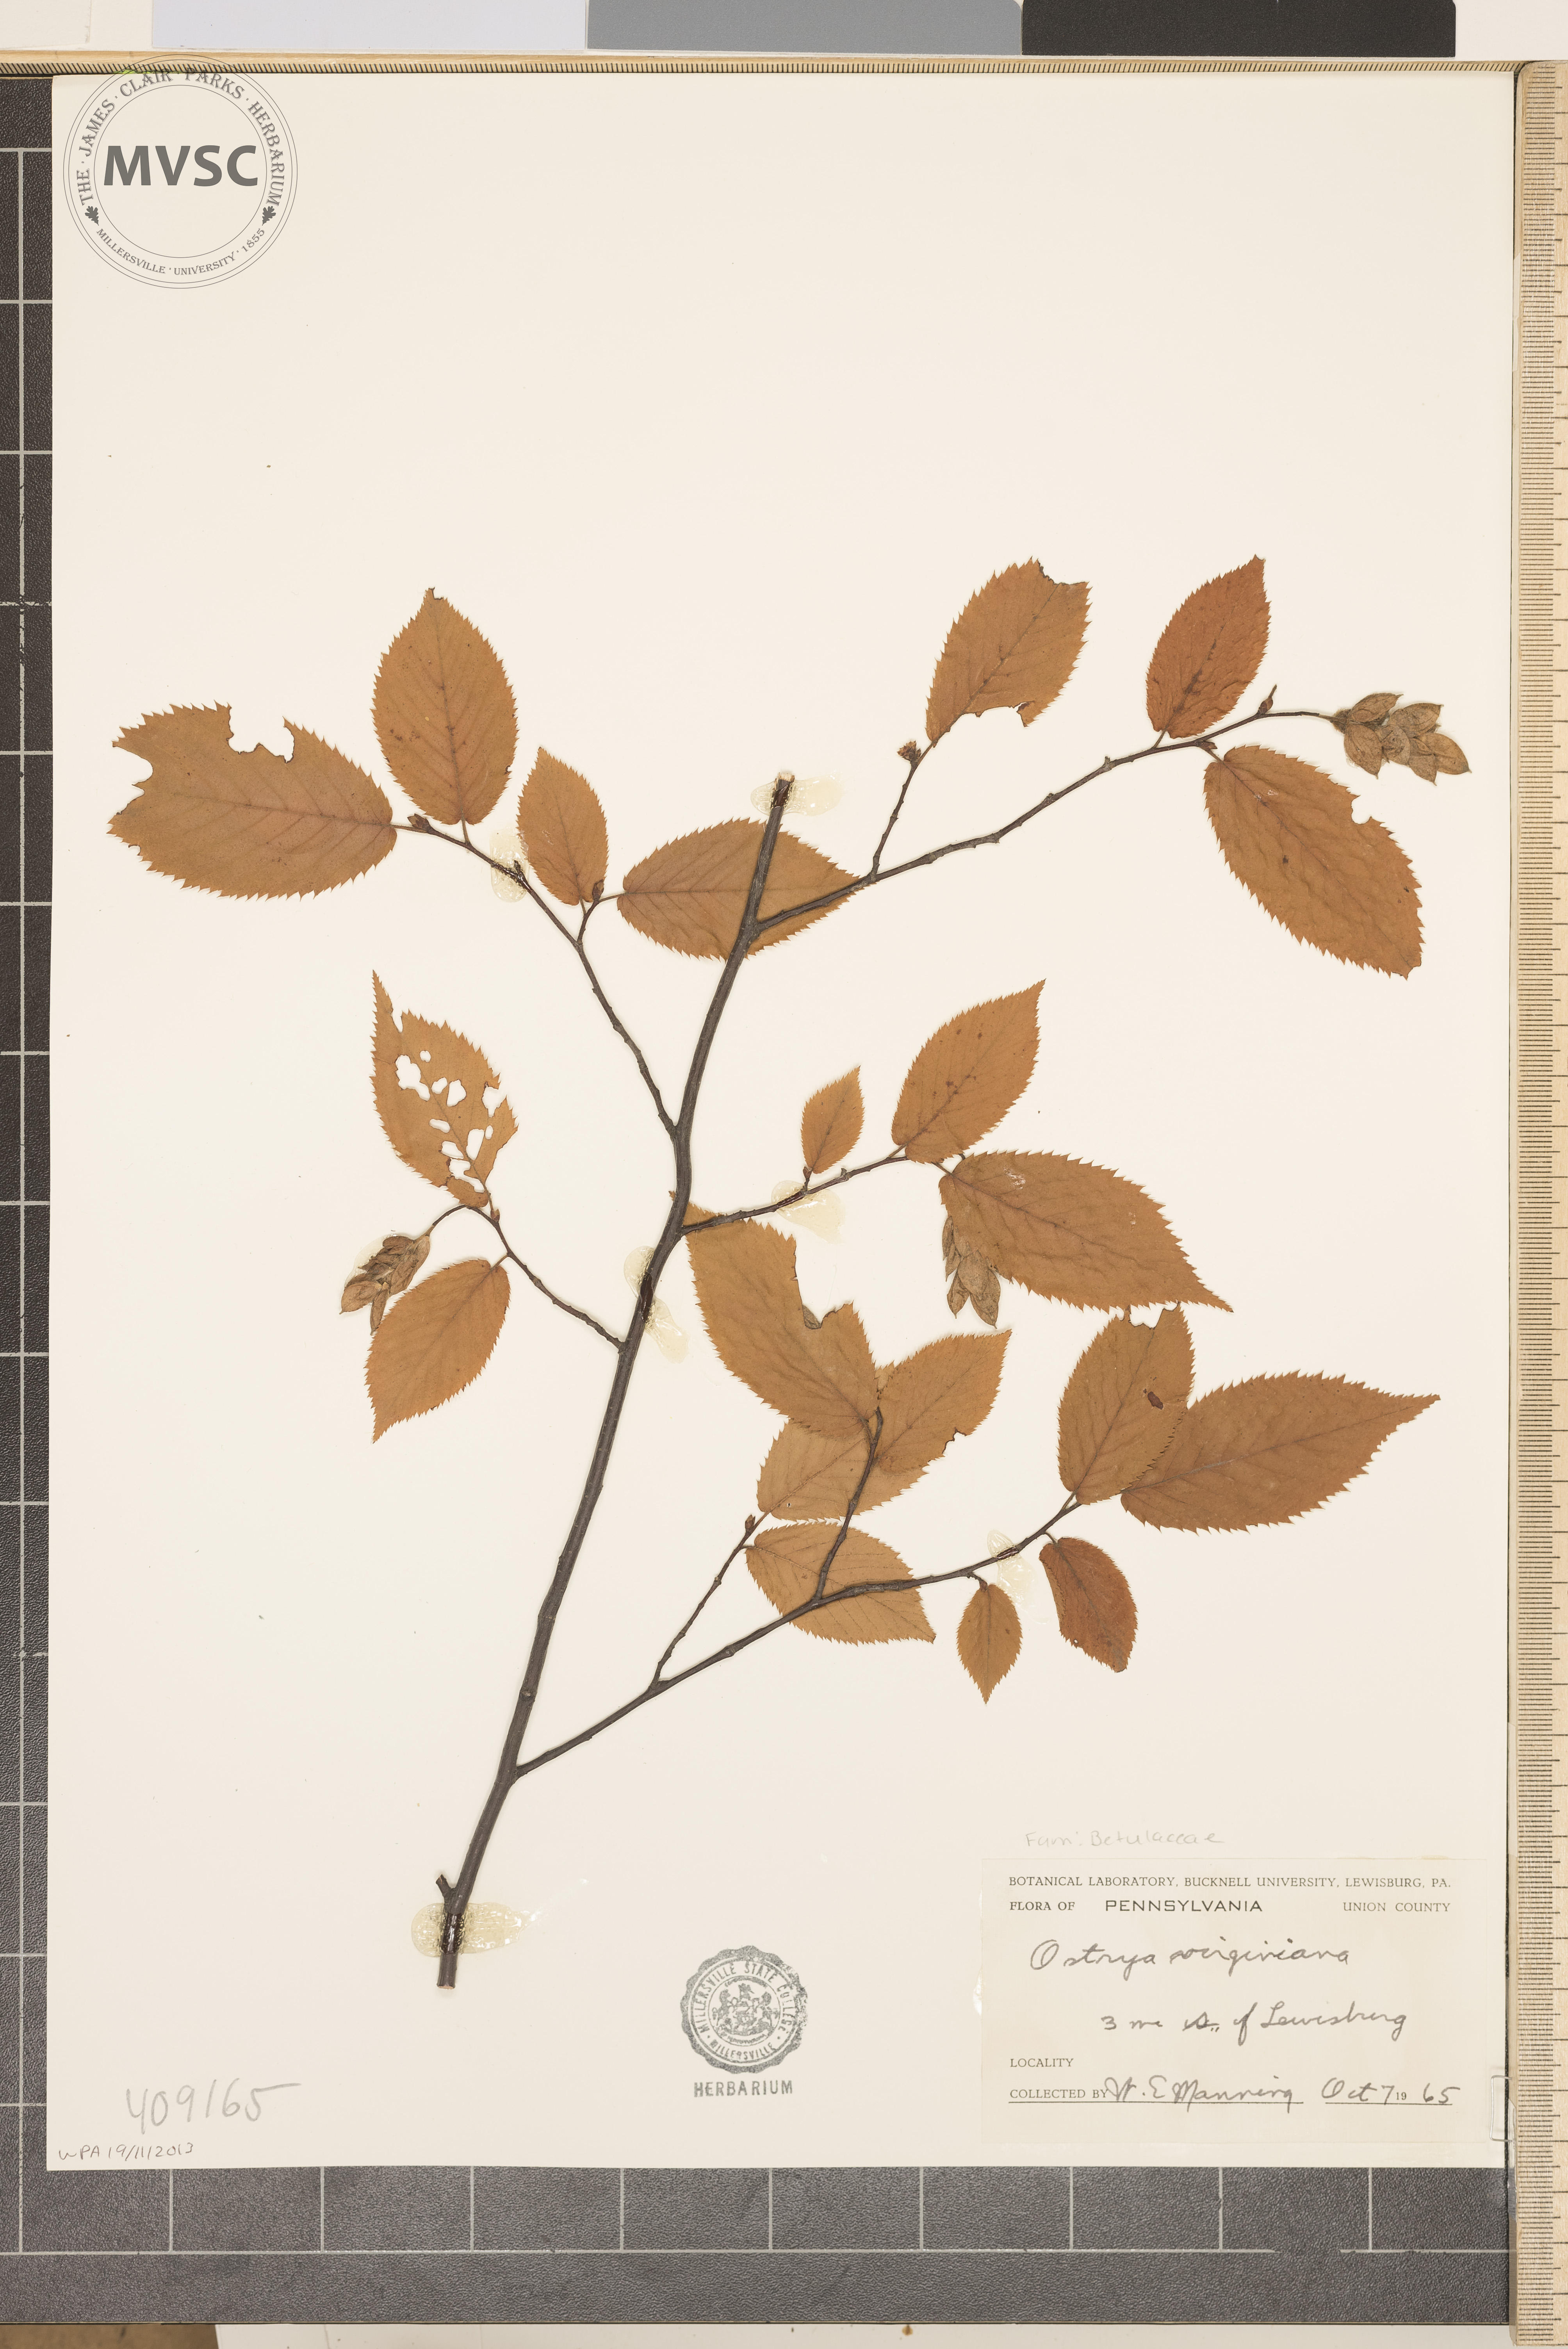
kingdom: Plantae
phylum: Tracheophyta
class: Magnoliopsida
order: Fagales
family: Betulaceae
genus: Ostrya
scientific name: Ostrya virginiana
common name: Ironwood
